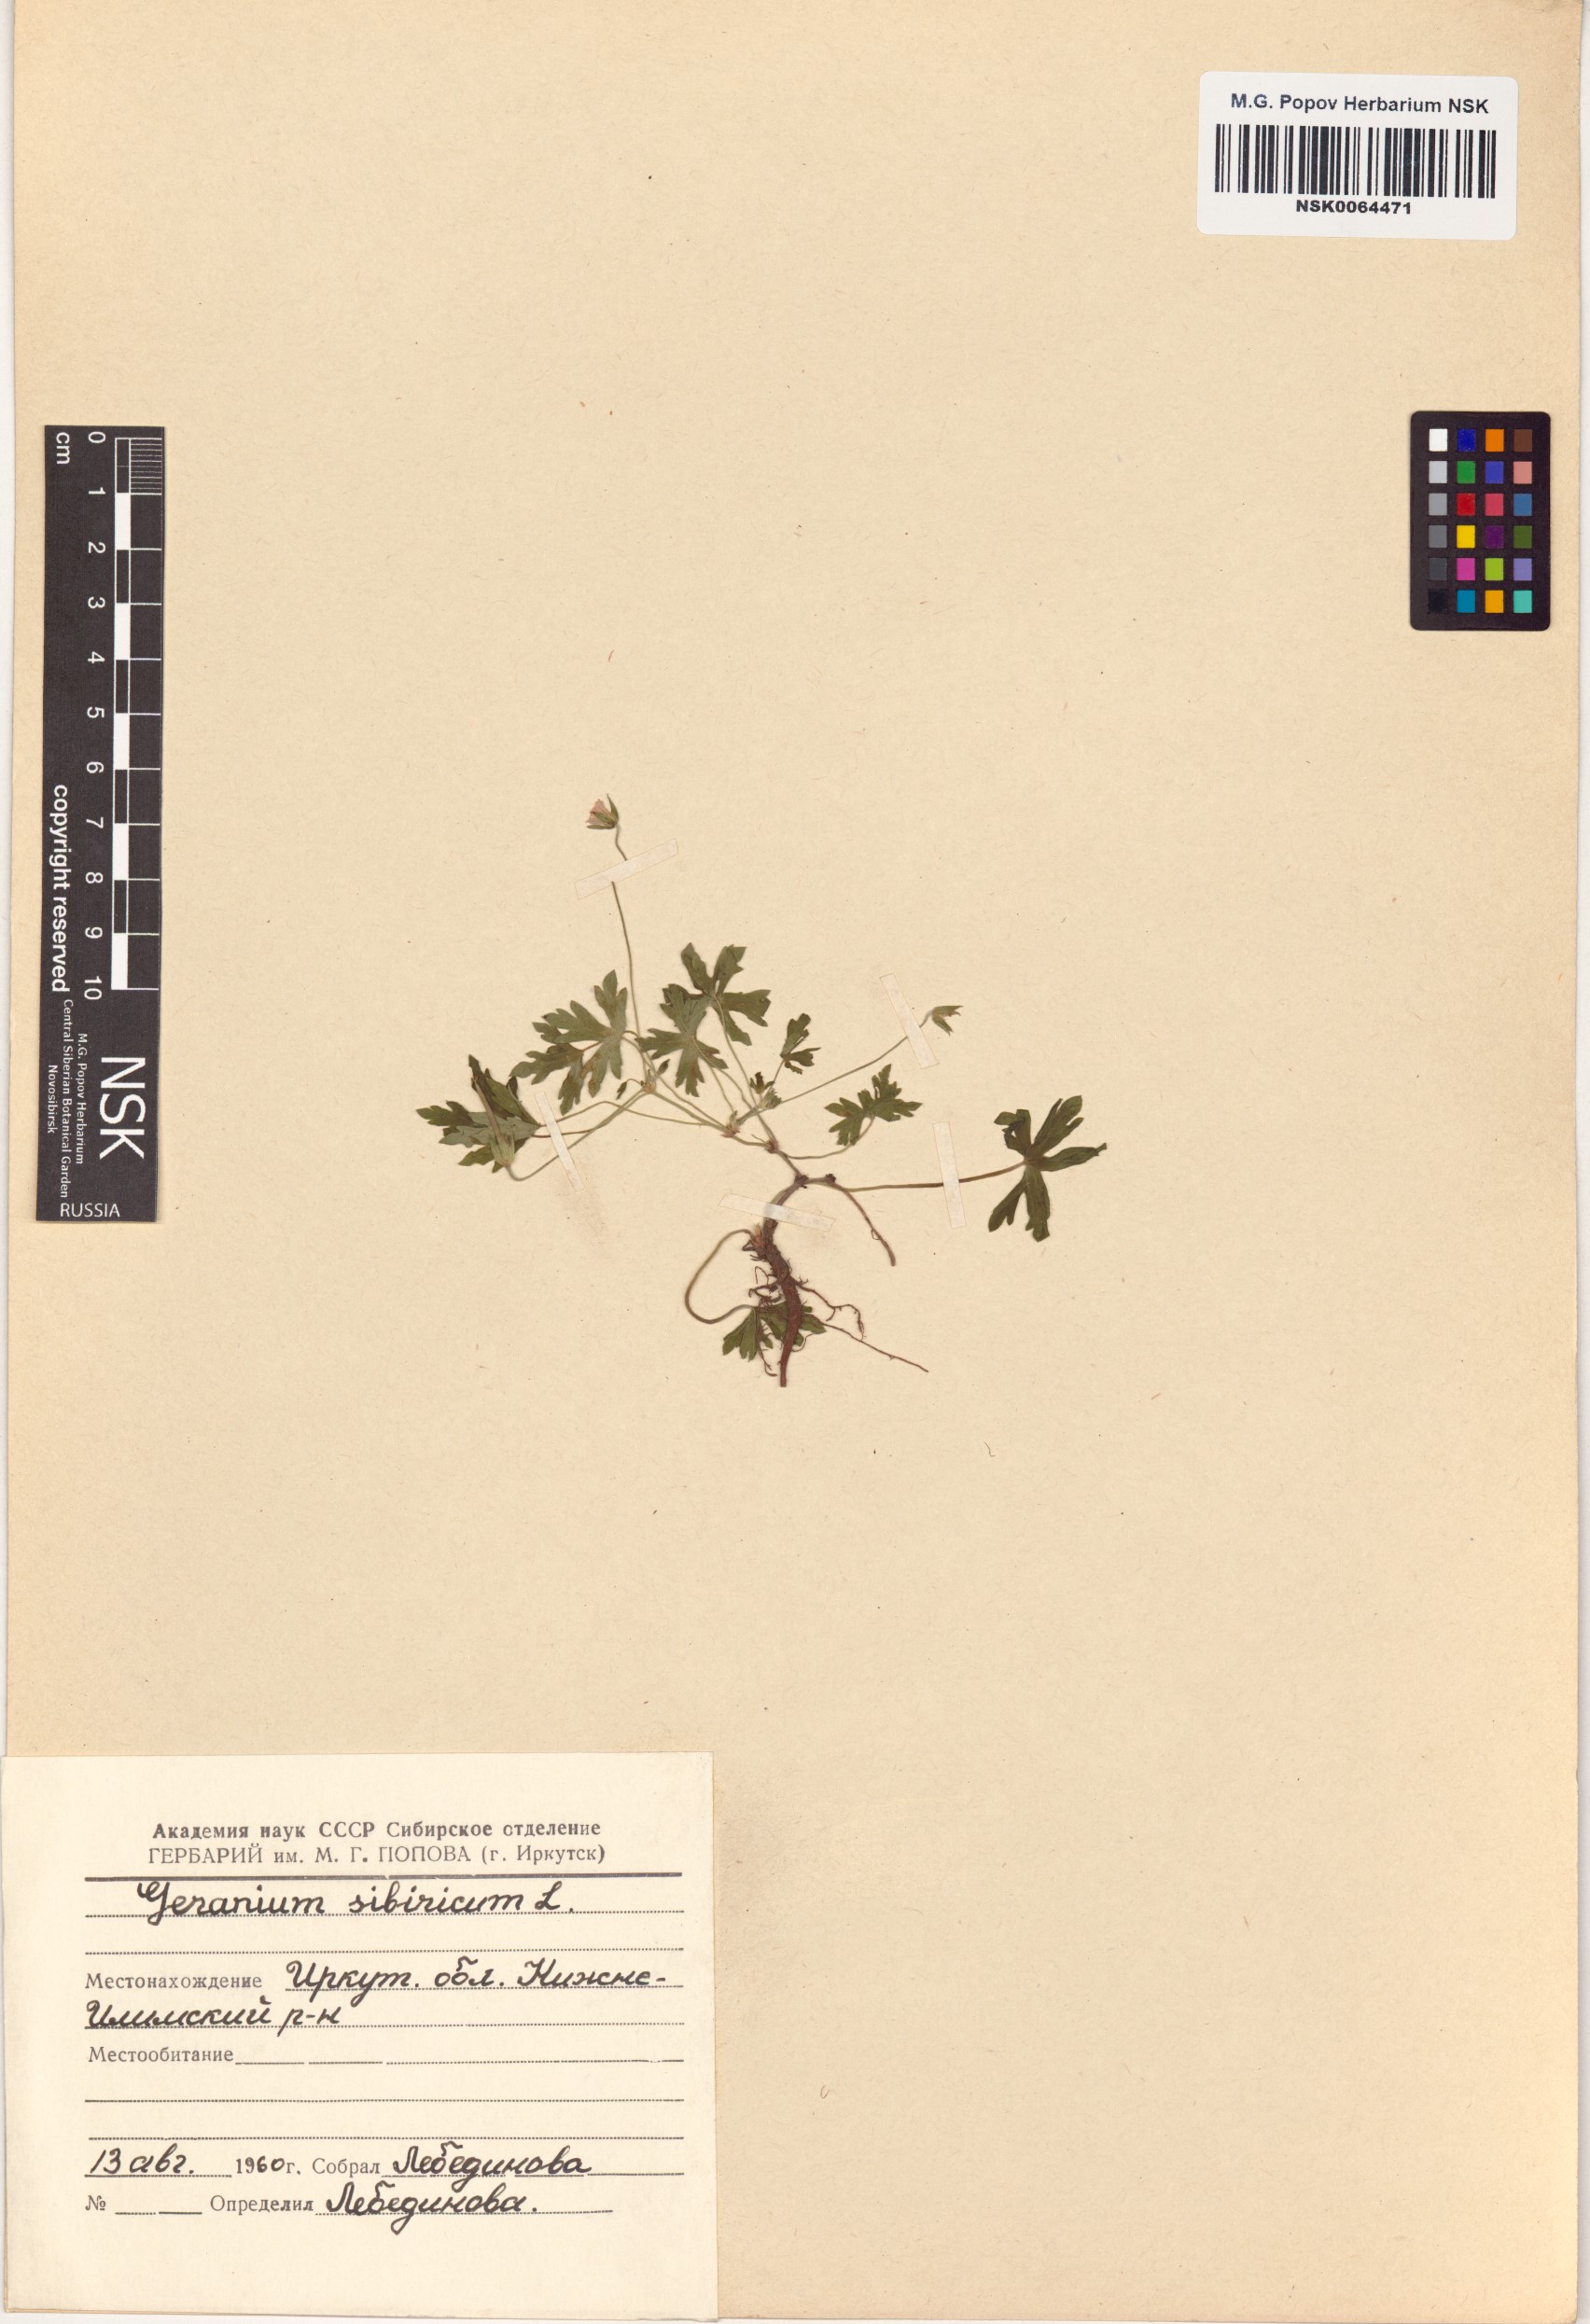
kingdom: Plantae
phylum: Tracheophyta
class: Magnoliopsida
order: Geraniales
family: Geraniaceae
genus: Geranium
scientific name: Geranium sibiricum
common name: Siberian crane's-bill
